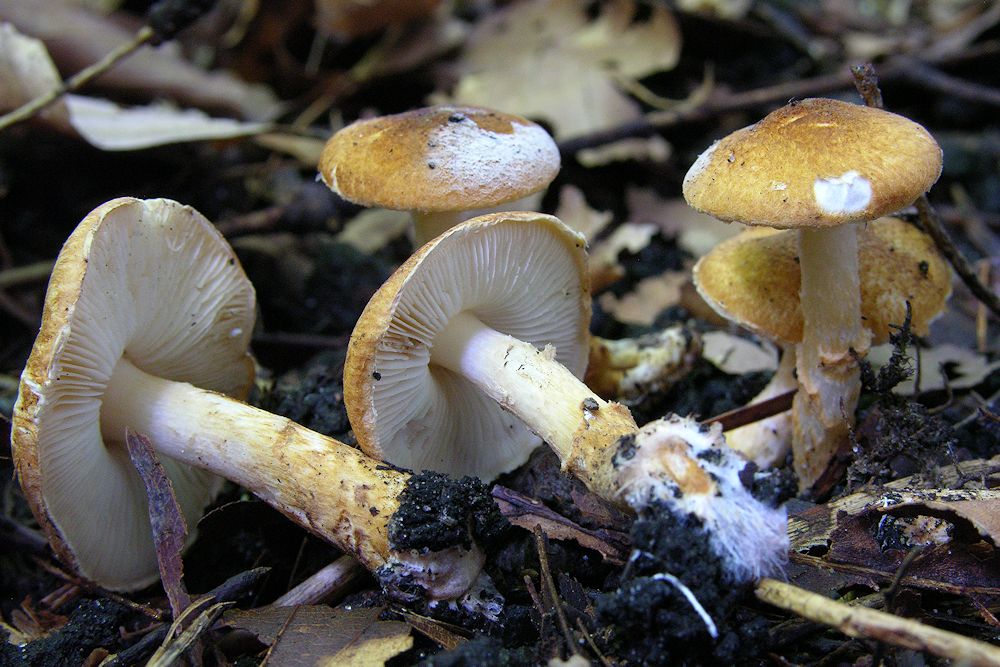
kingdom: Fungi
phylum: Basidiomycota
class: Agaricomycetes
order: Agaricales
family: Agaricaceae
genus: Leucocoprinus
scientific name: Leucocoprinus straminellus
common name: rustbrun parasolhat
